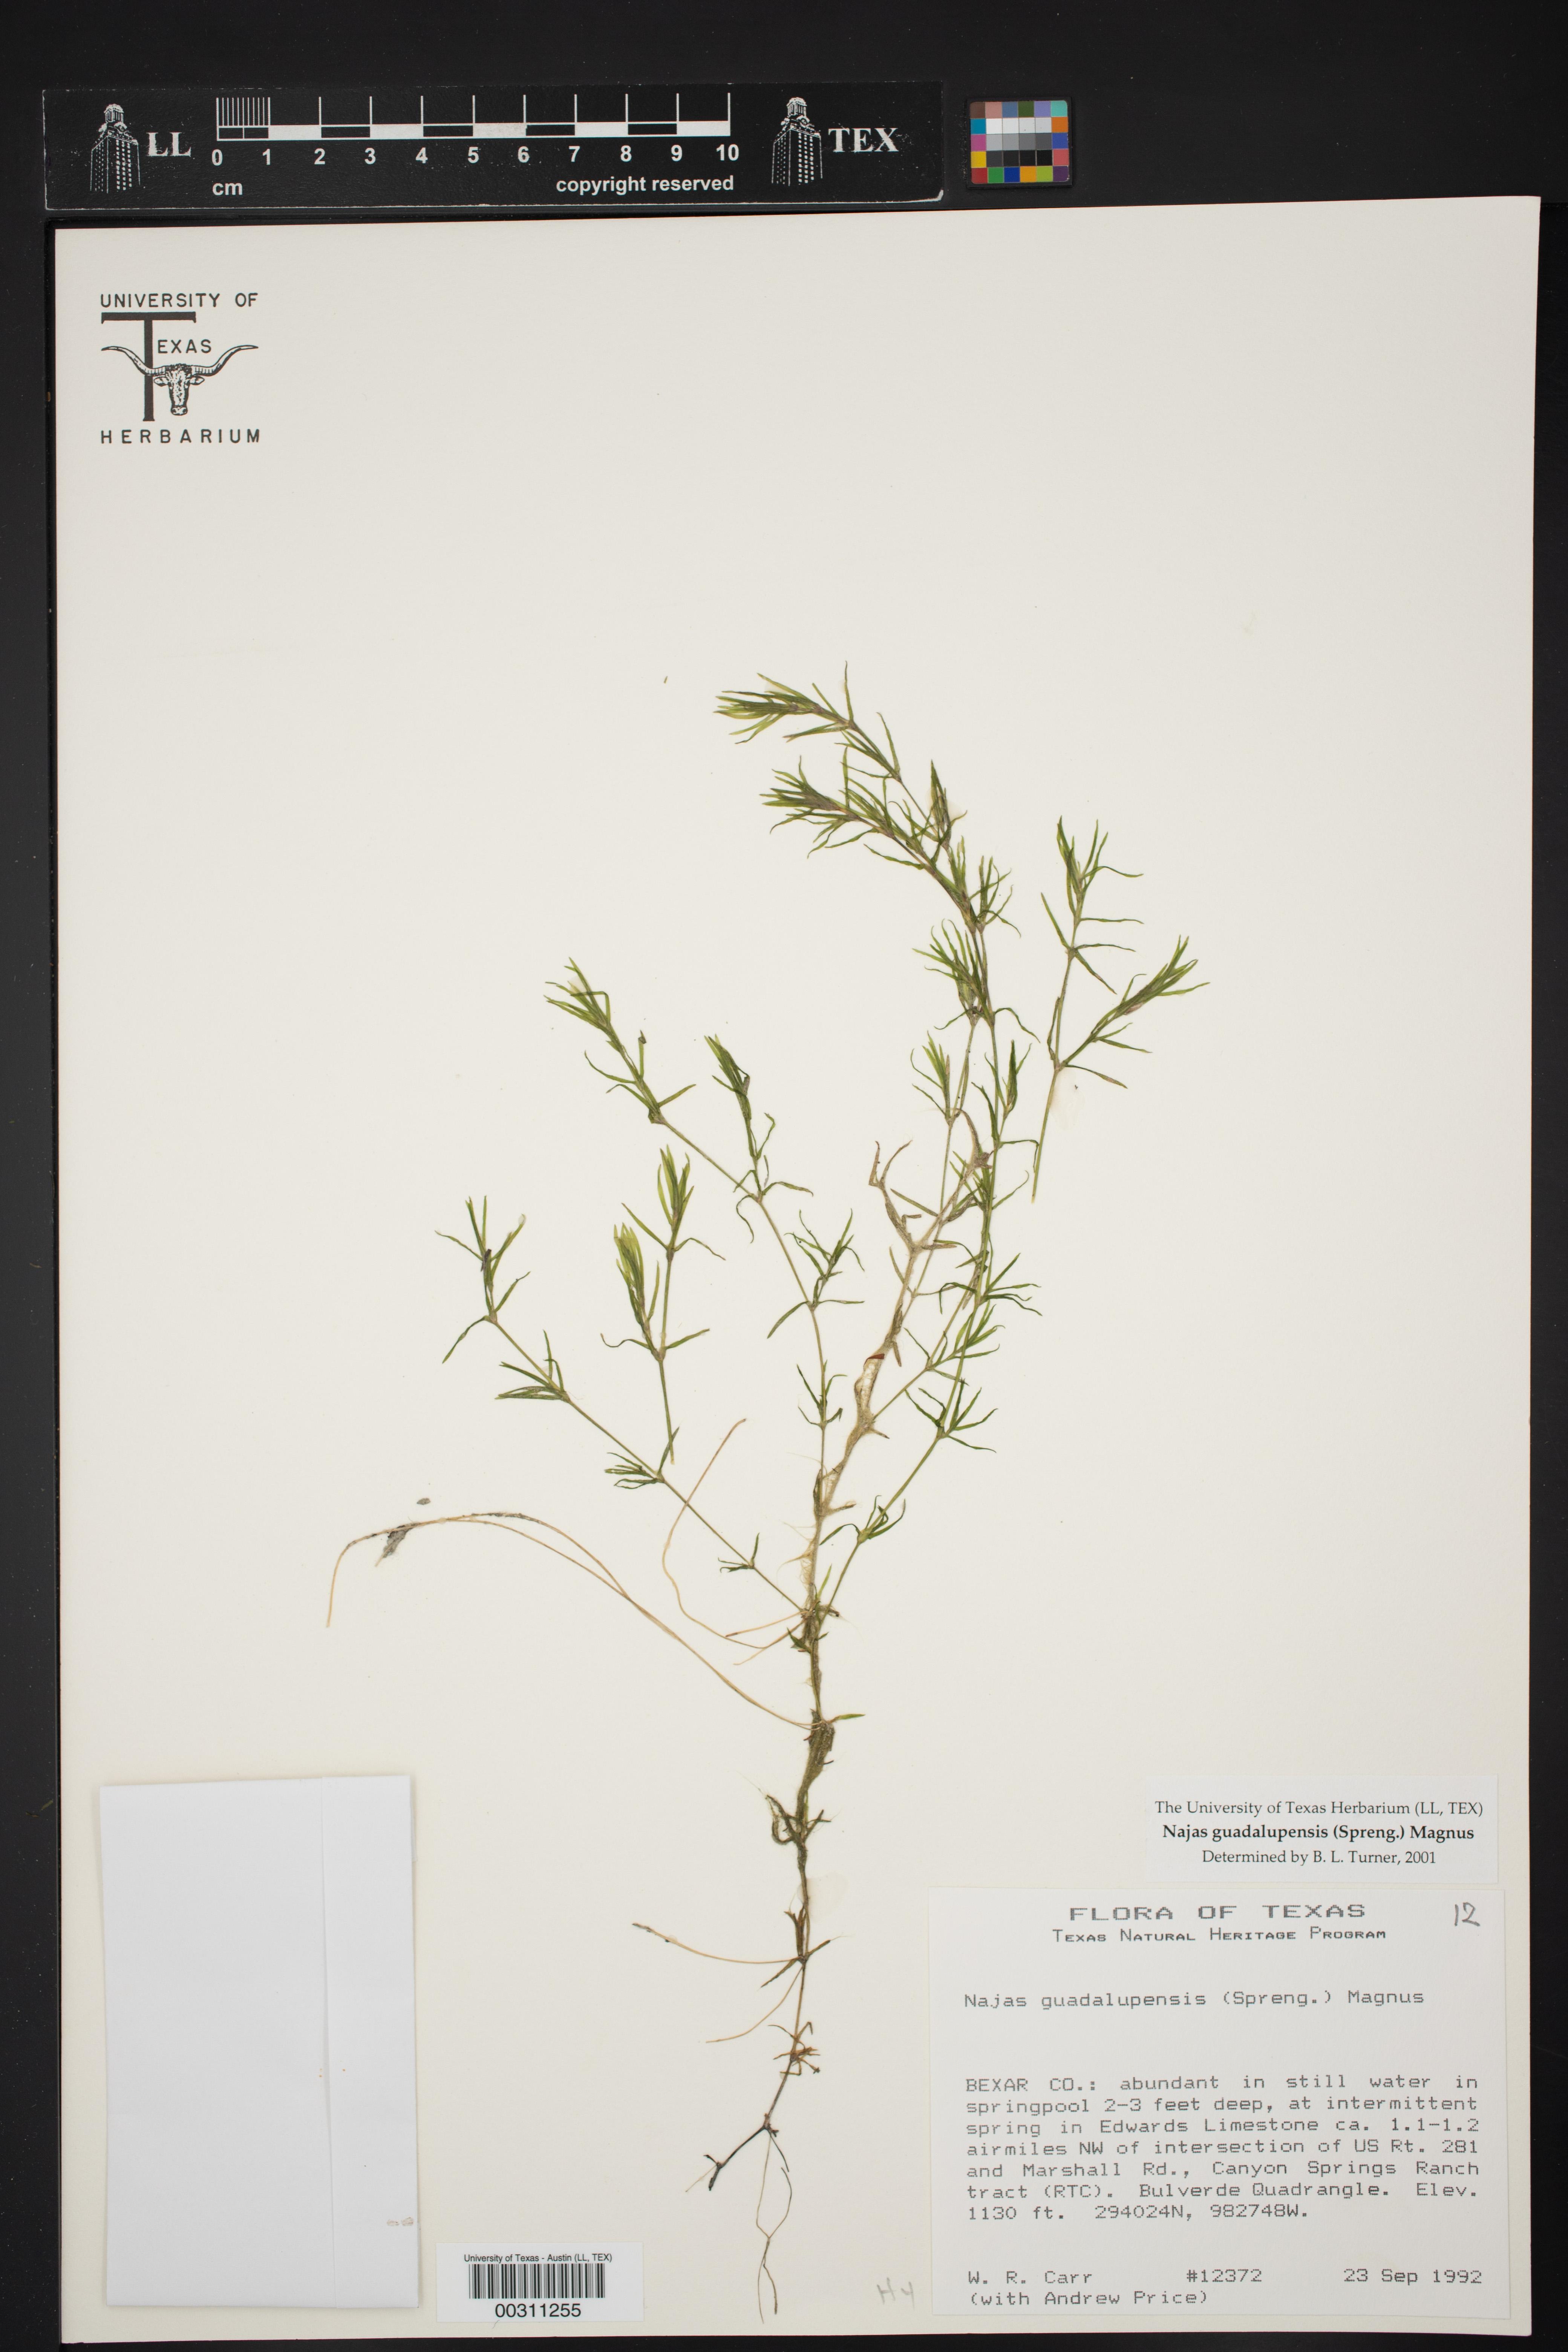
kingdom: Plantae
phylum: Tracheophyta
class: Liliopsida
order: Alismatales
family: Hydrocharitaceae
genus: Najas
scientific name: Najas guadalupensis
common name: Southern naiad
